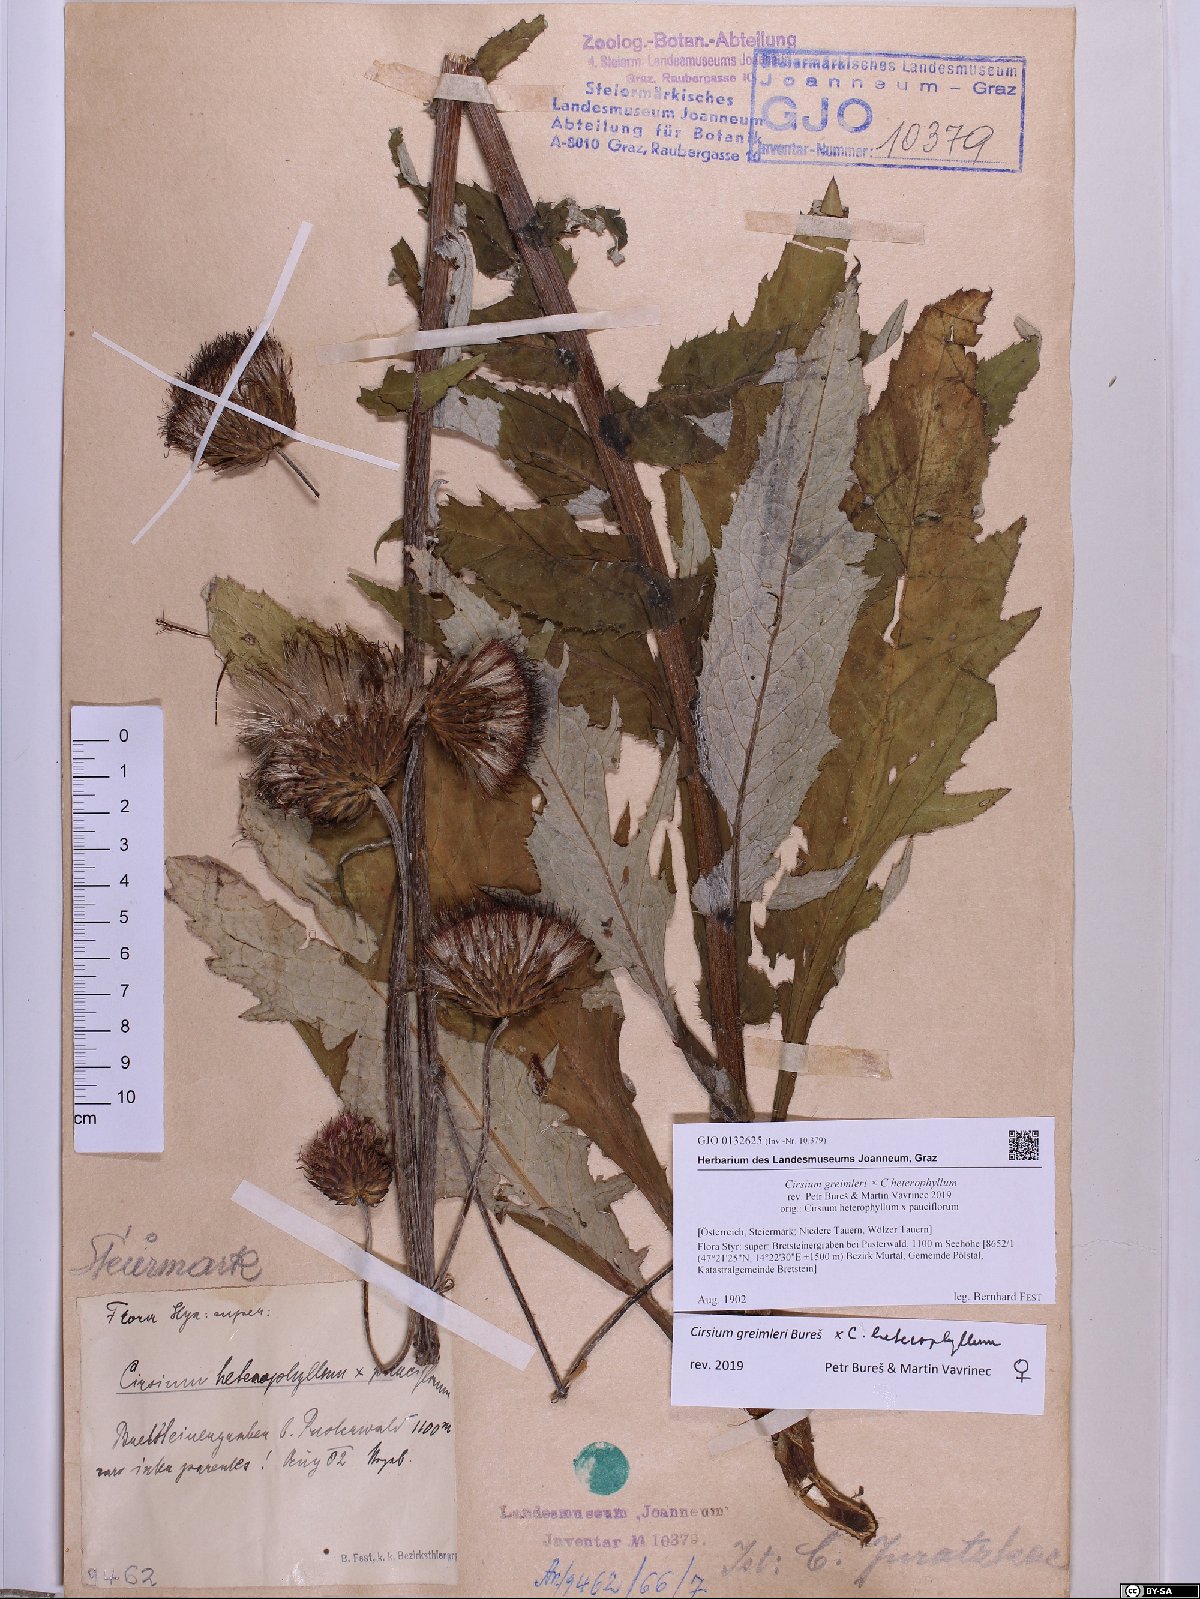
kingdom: Plantae
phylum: Tracheophyta
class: Magnoliopsida
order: Asterales
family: Asteraceae
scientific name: Asteraceae
